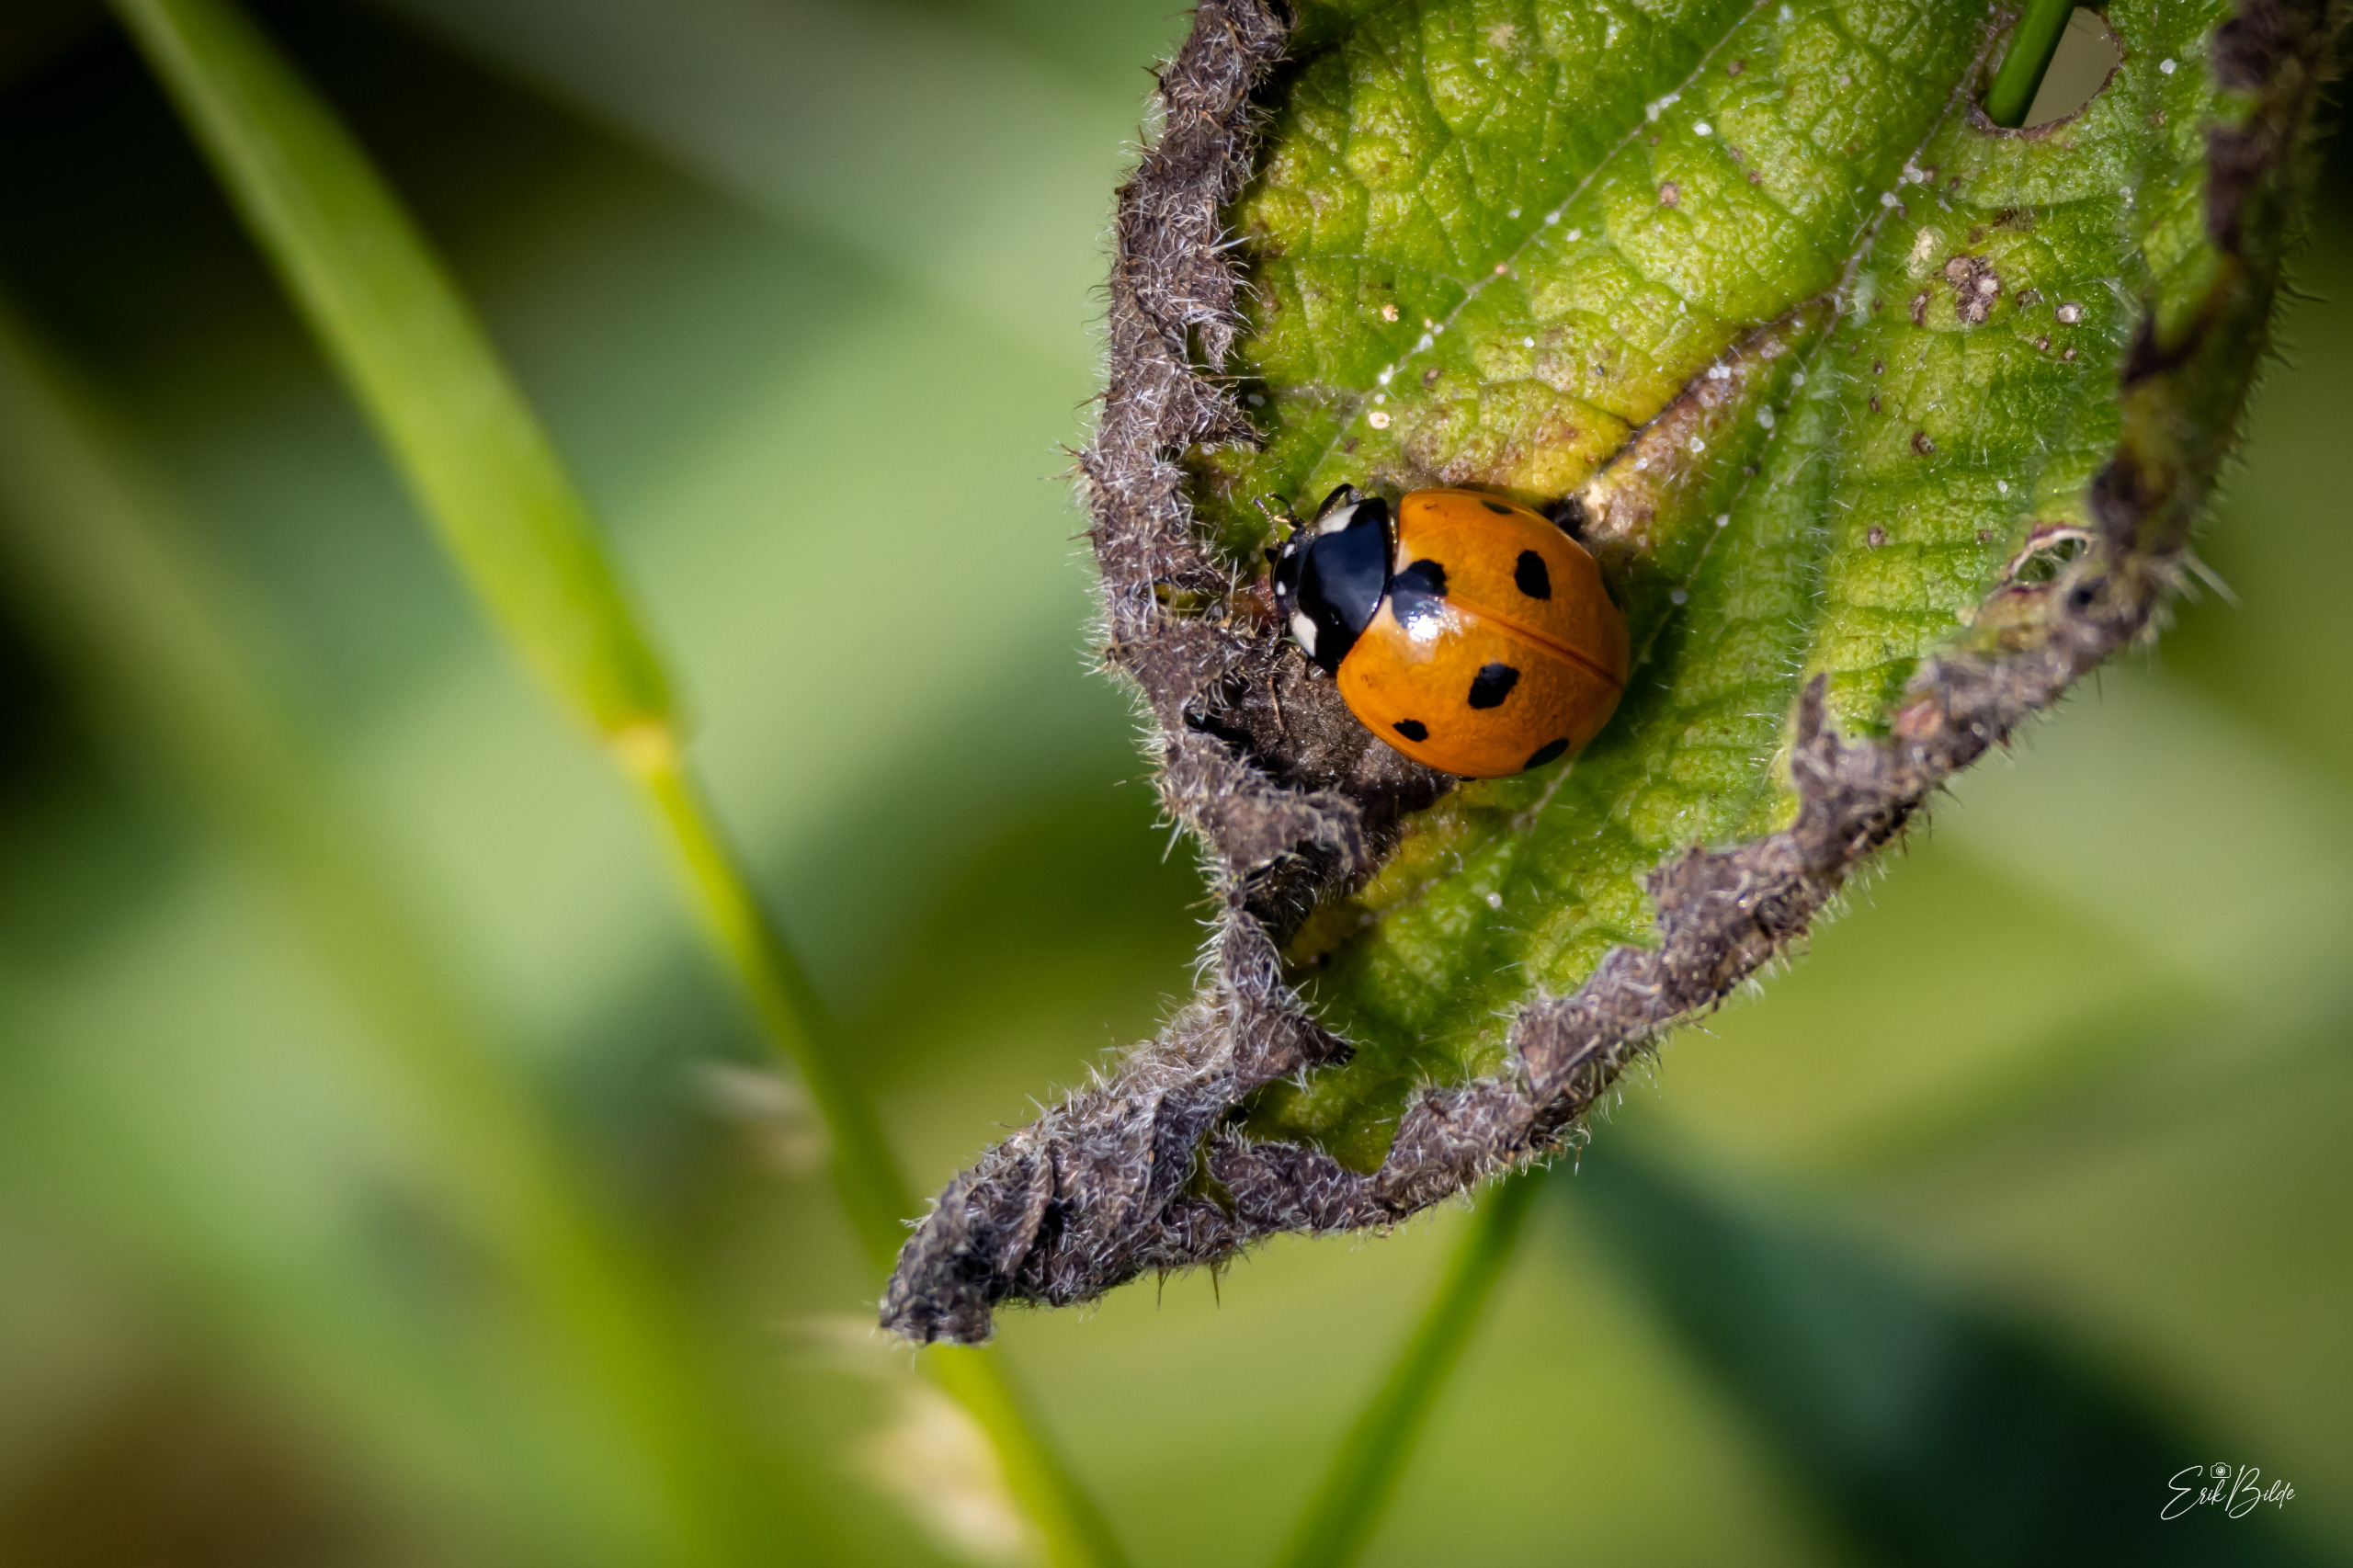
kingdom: Animalia
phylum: Arthropoda
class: Insecta
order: Coleoptera
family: Coccinellidae
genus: Coccinella
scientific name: Coccinella septempunctata
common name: Syvplettet mariehøne
